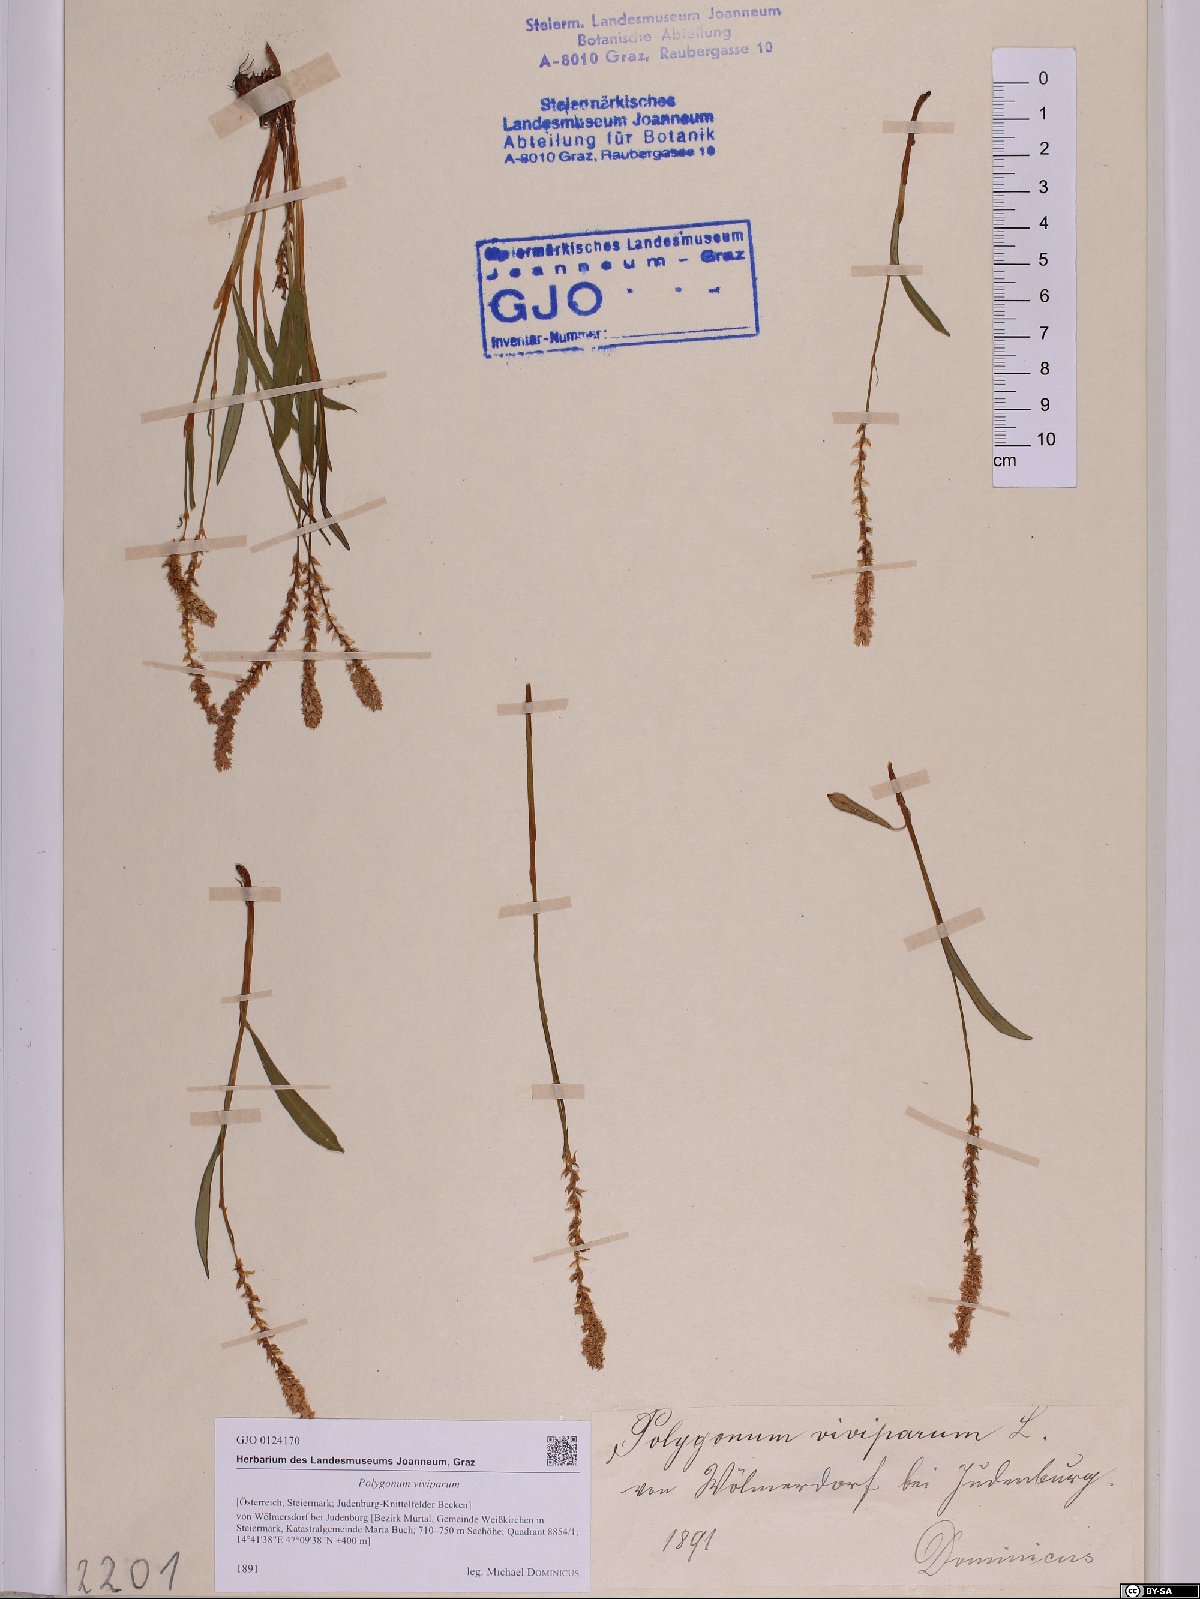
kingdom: Plantae
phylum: Tracheophyta
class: Magnoliopsida
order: Caryophyllales
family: Polygonaceae
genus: Bistorta
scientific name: Bistorta vivipara
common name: Alpine bistort
